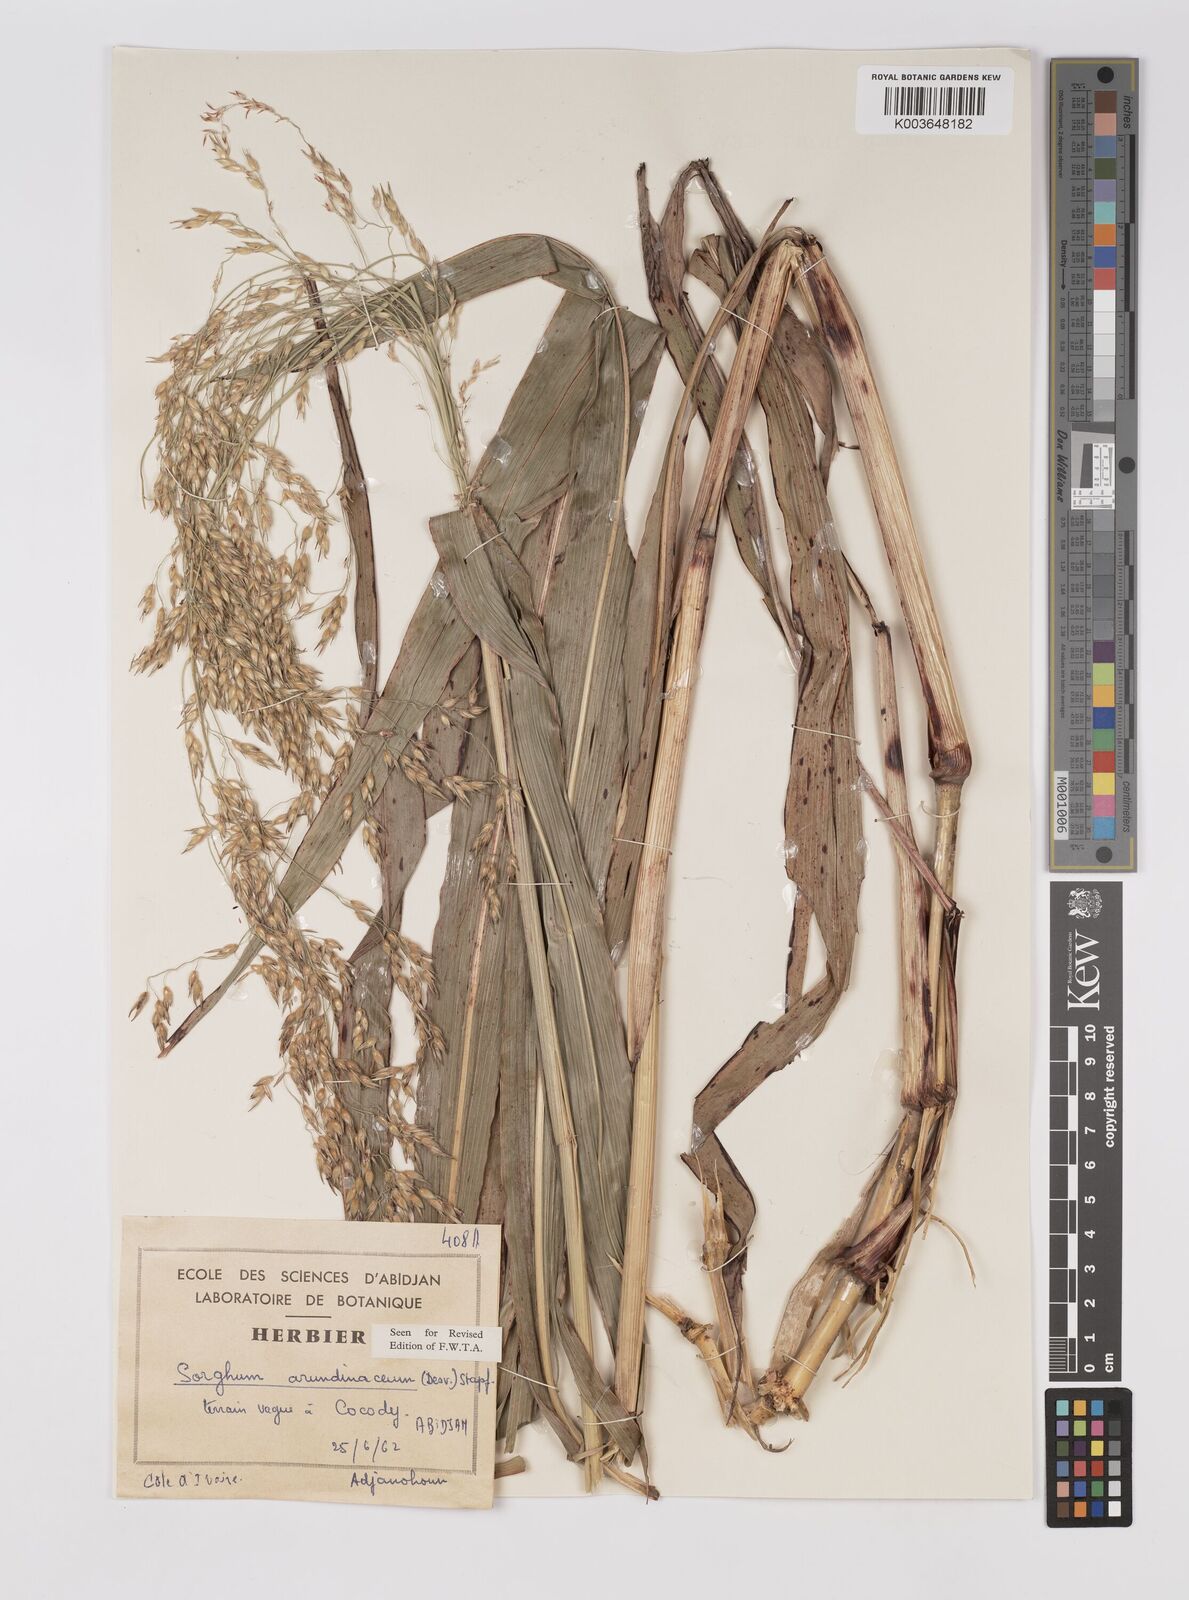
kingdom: Plantae
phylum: Tracheophyta
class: Liliopsida
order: Poales
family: Poaceae
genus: Sorghum
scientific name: Sorghum arundinaceum
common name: Sorghum
